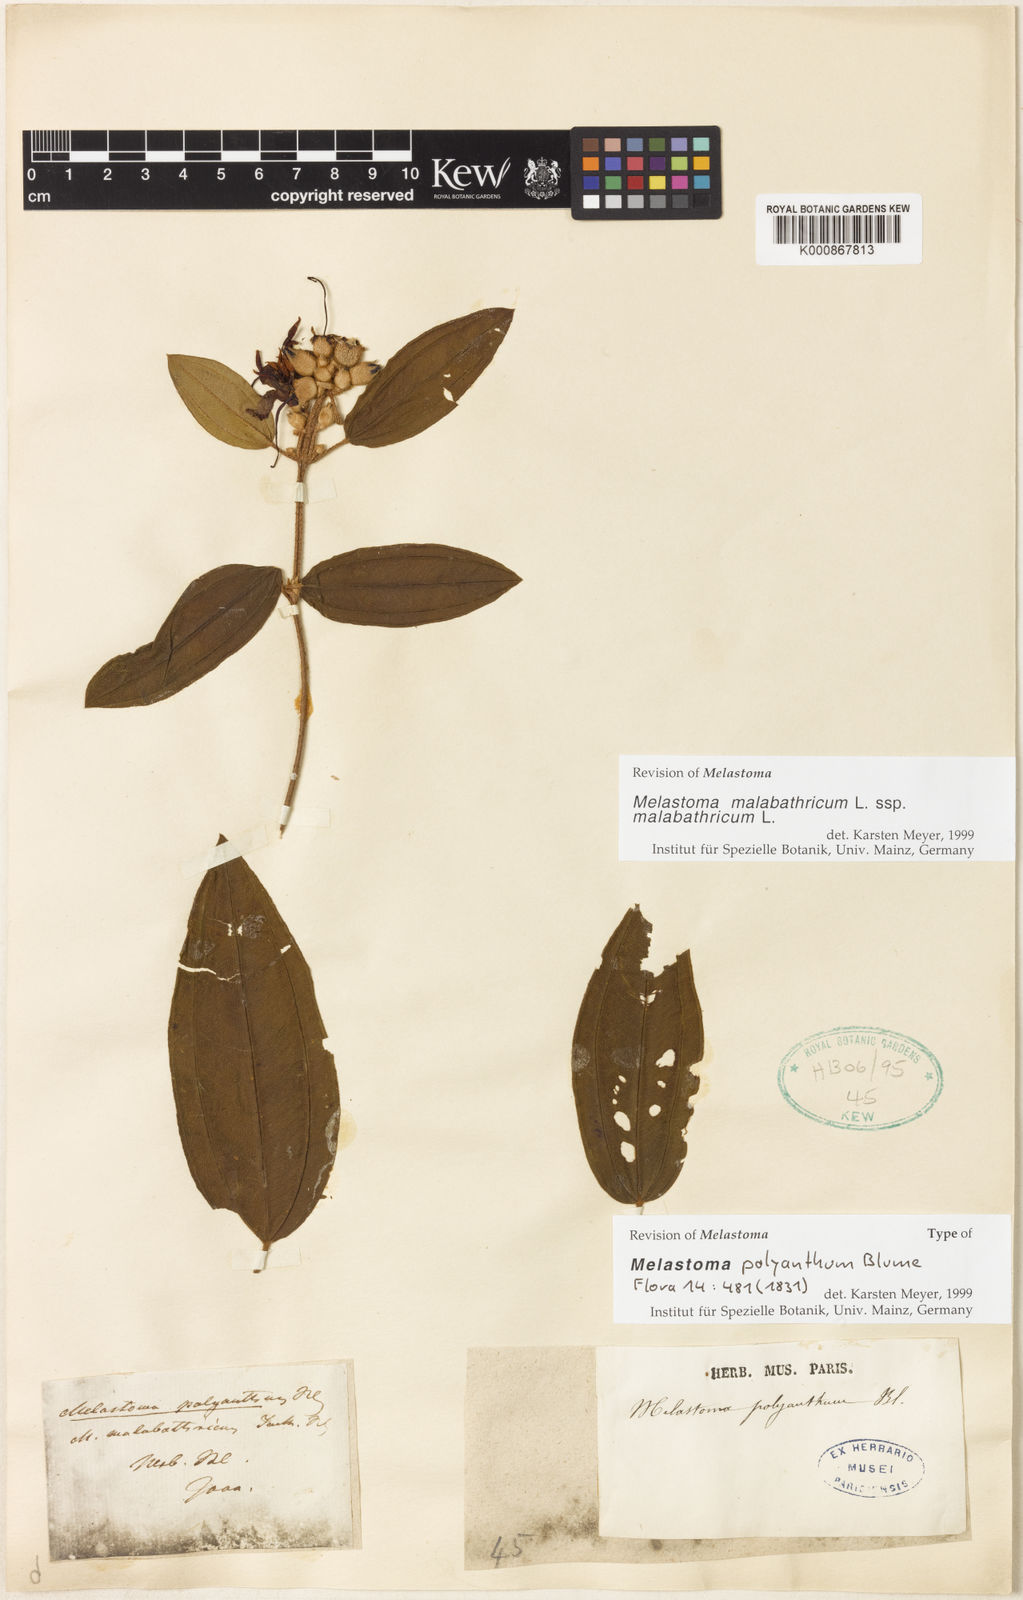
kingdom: Plantae
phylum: Tracheophyta
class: Magnoliopsida
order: Myrtales
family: Melastomataceae
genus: Melastoma
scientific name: Melastoma malabathricum
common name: Indian-rhododendron
